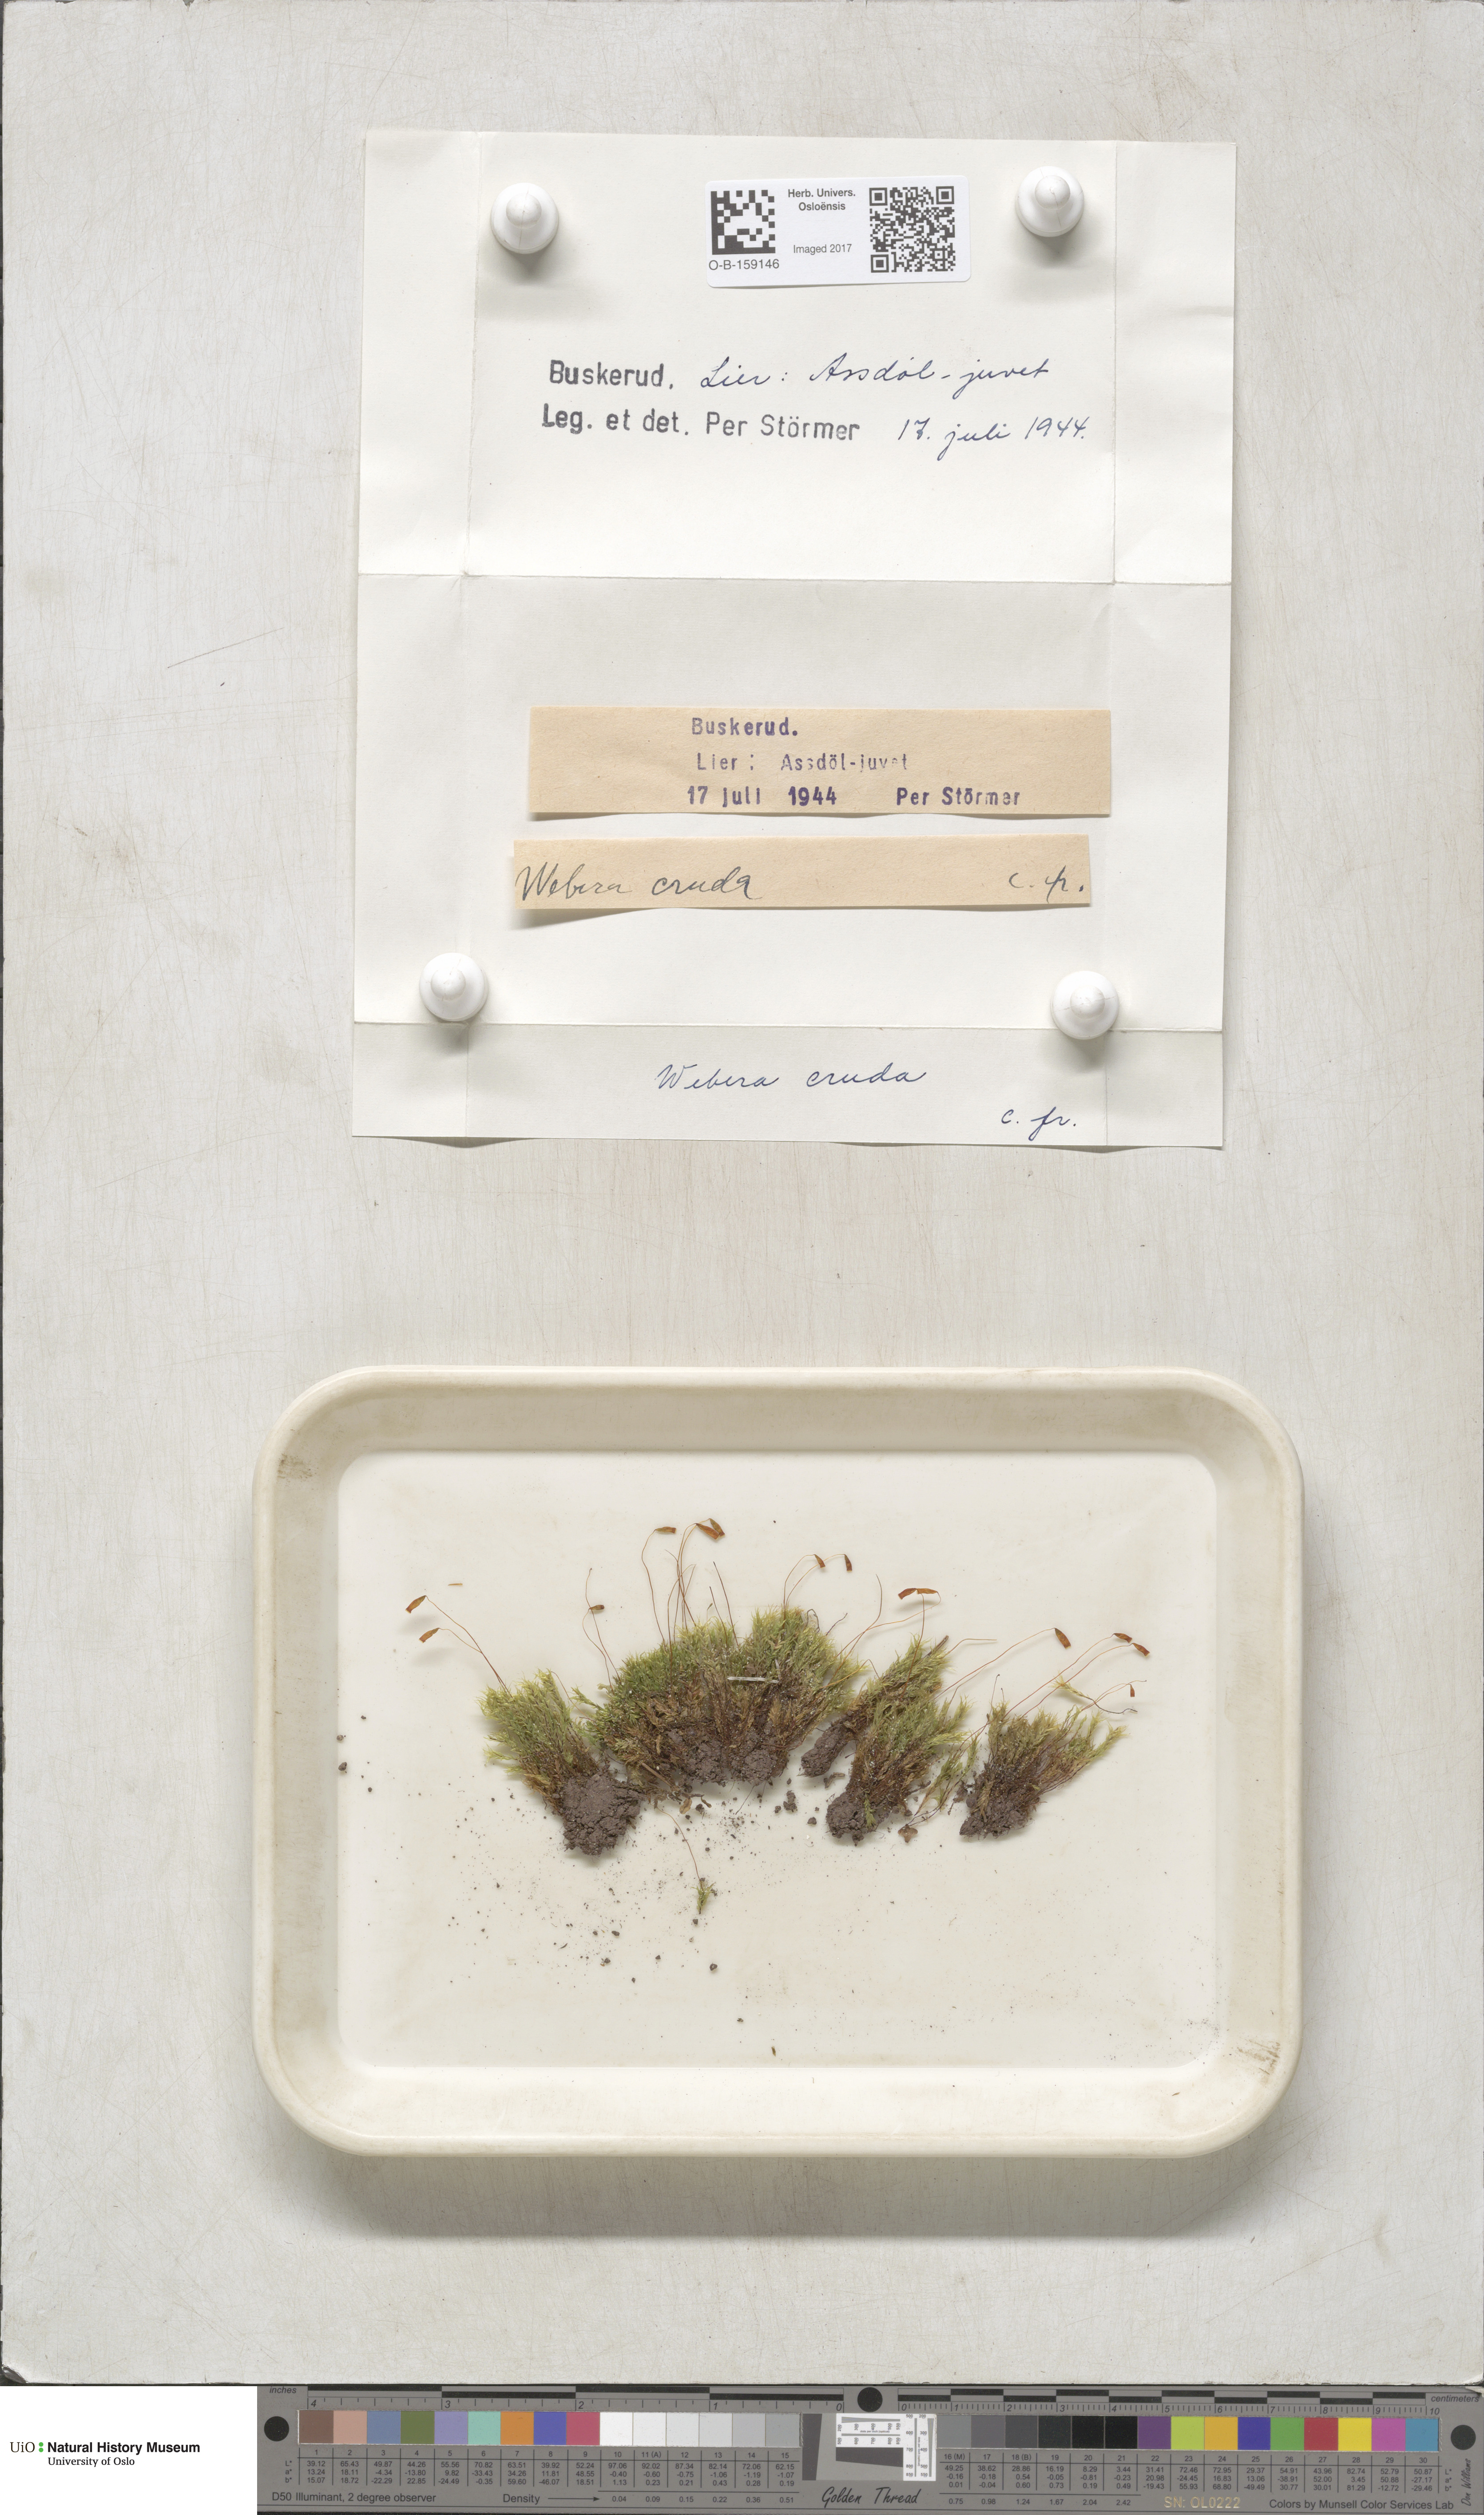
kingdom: Plantae
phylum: Bryophyta
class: Bryopsida
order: Bryales
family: Mniaceae
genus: Pohlia
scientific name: Pohlia cruda
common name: Opal nodding moss
